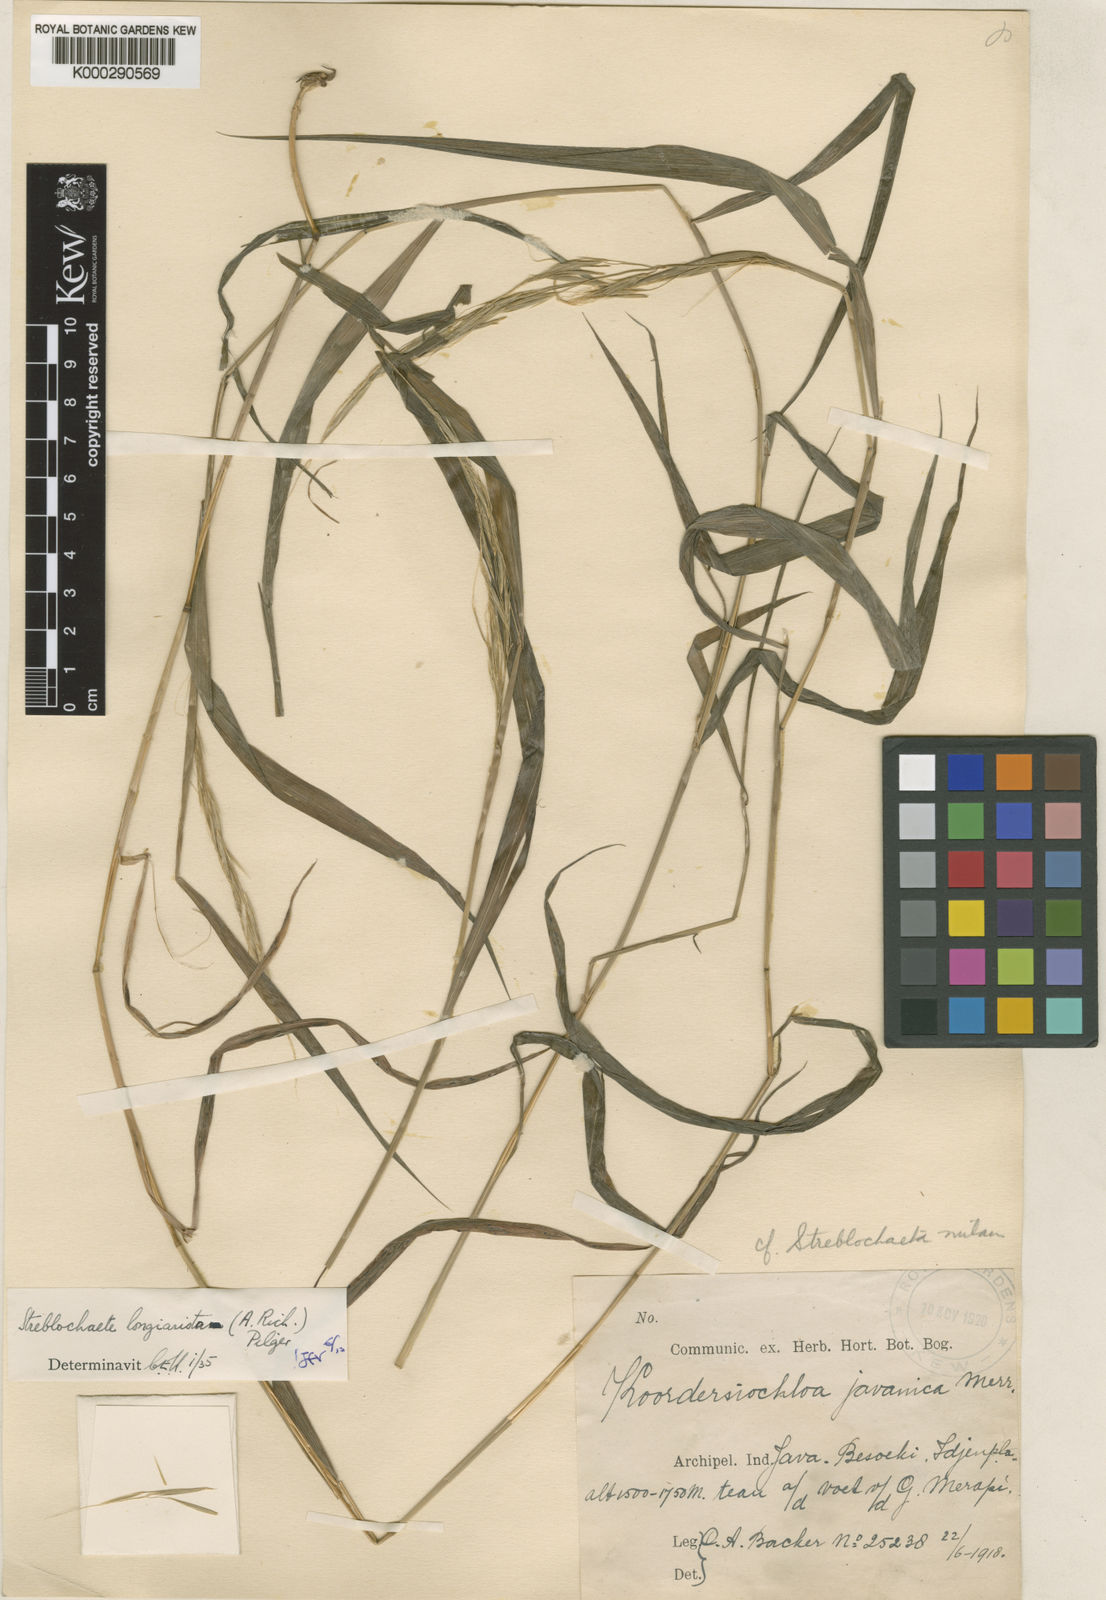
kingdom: Plantae
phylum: Tracheophyta
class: Liliopsida
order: Poales
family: Poaceae
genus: Koordersiochloa
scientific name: Koordersiochloa longiarista
